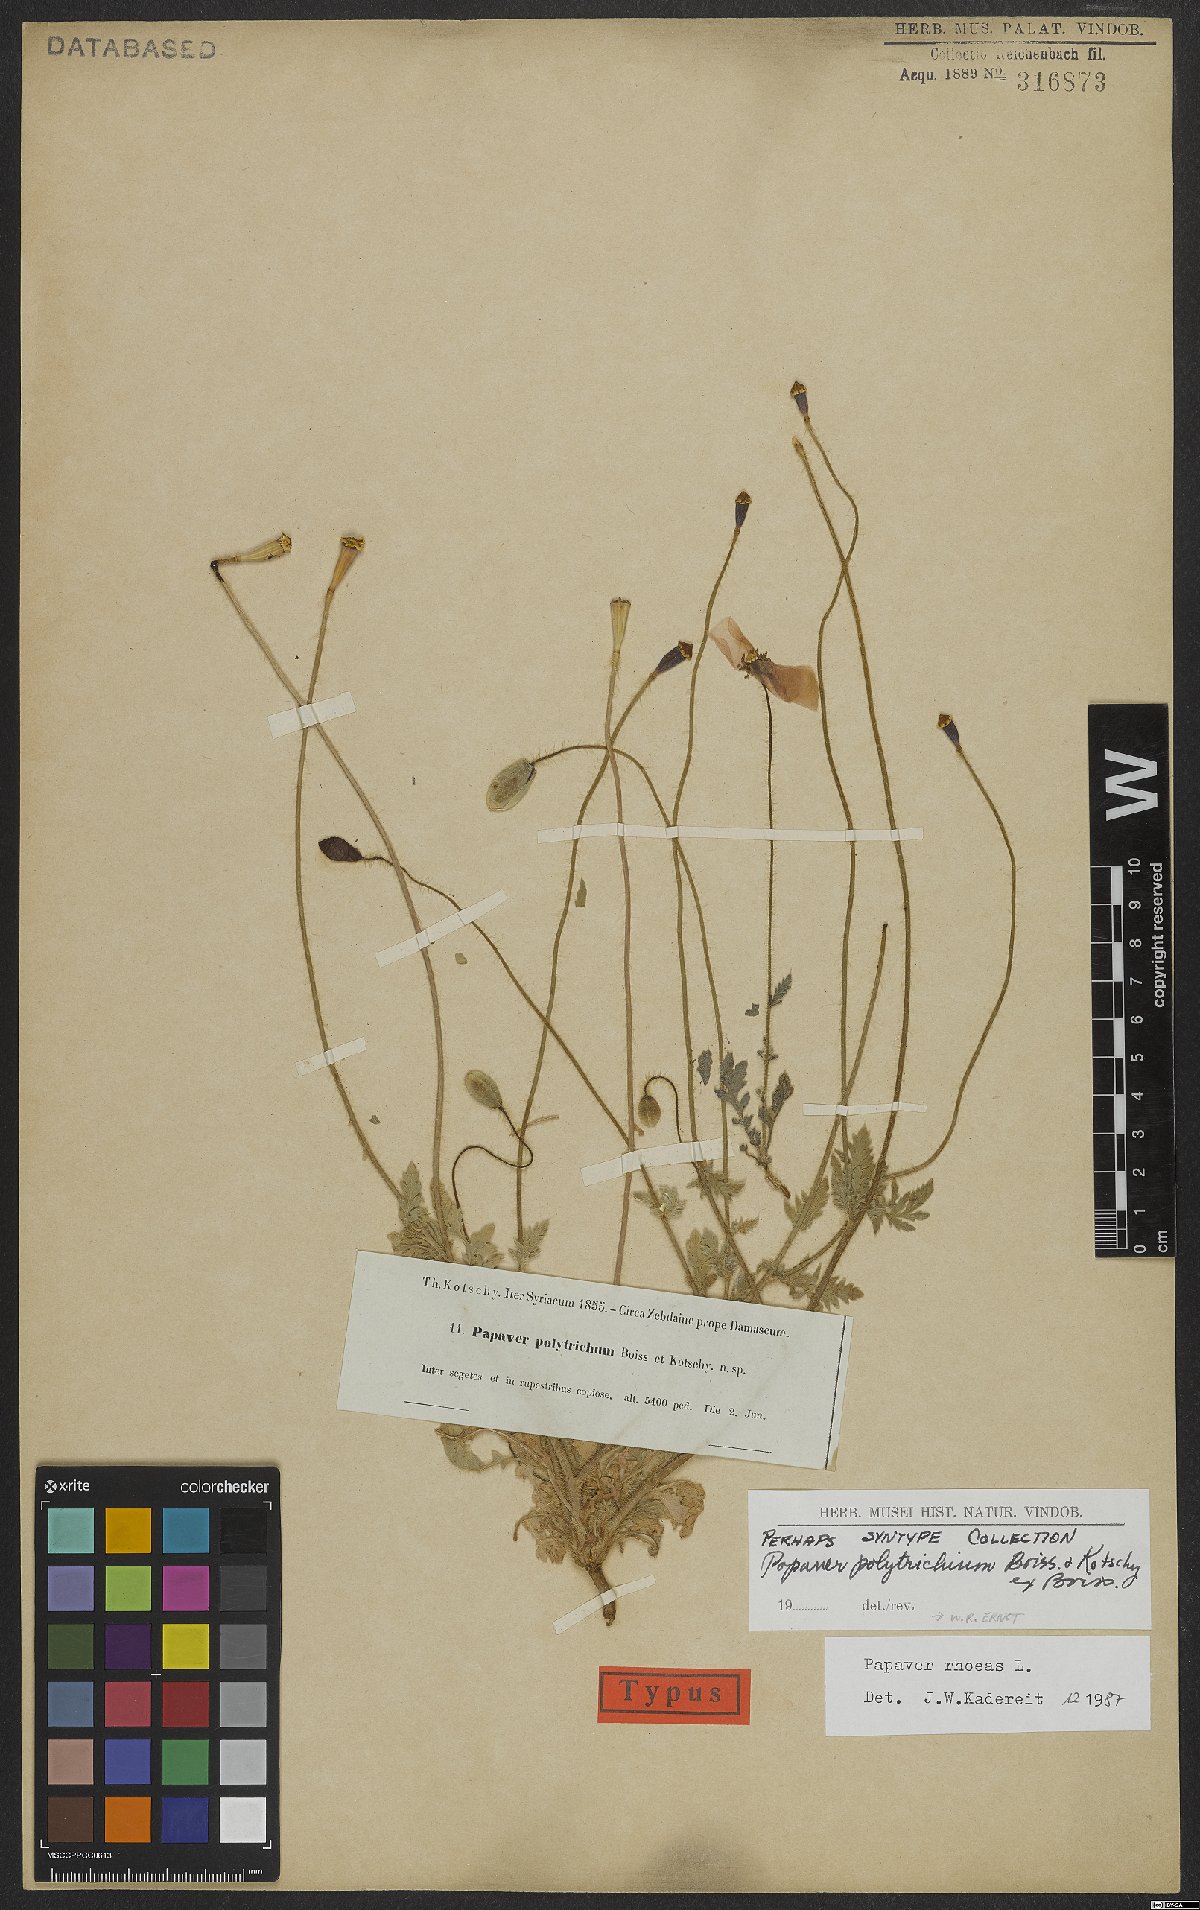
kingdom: Plantae
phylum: Tracheophyta
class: Magnoliopsida
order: Ranunculales
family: Papaveraceae
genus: Papaver
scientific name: Papaver rhoeas
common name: Corn poppy
